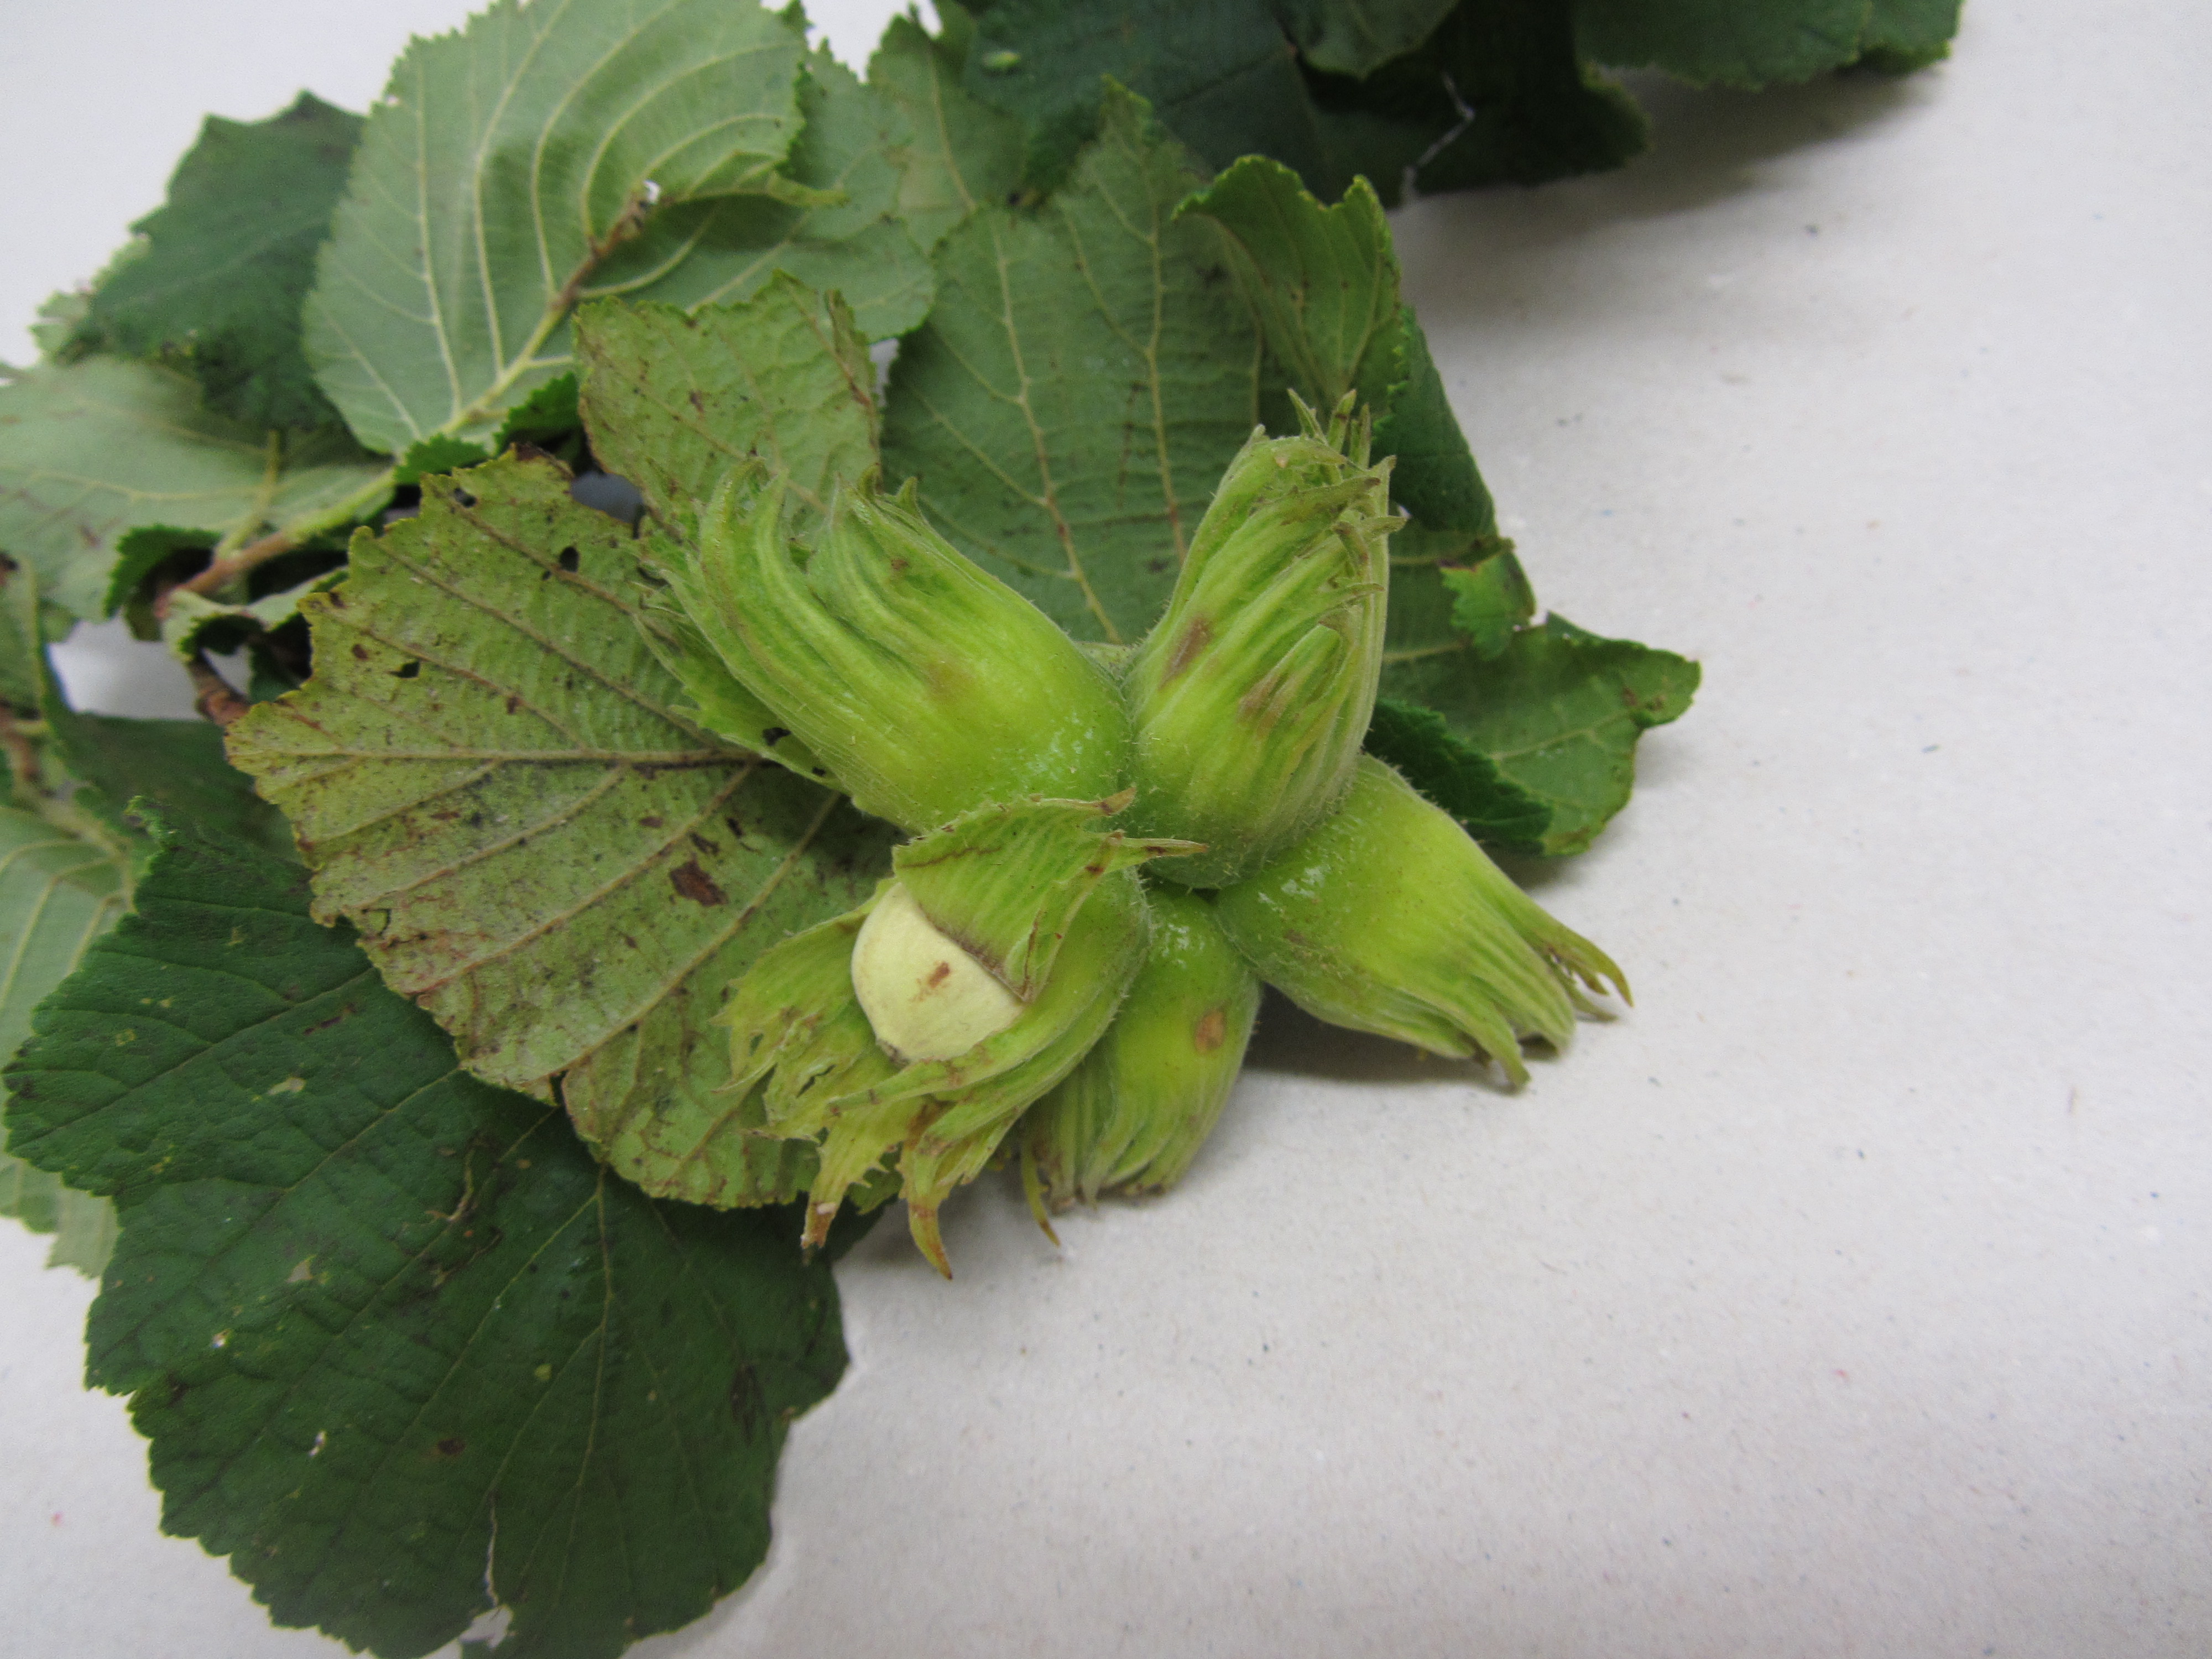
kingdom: Plantae
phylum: Tracheophyta
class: Magnoliopsida
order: Fagales
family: Betulaceae
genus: Corylus
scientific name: Corylus avellana
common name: European hazel
